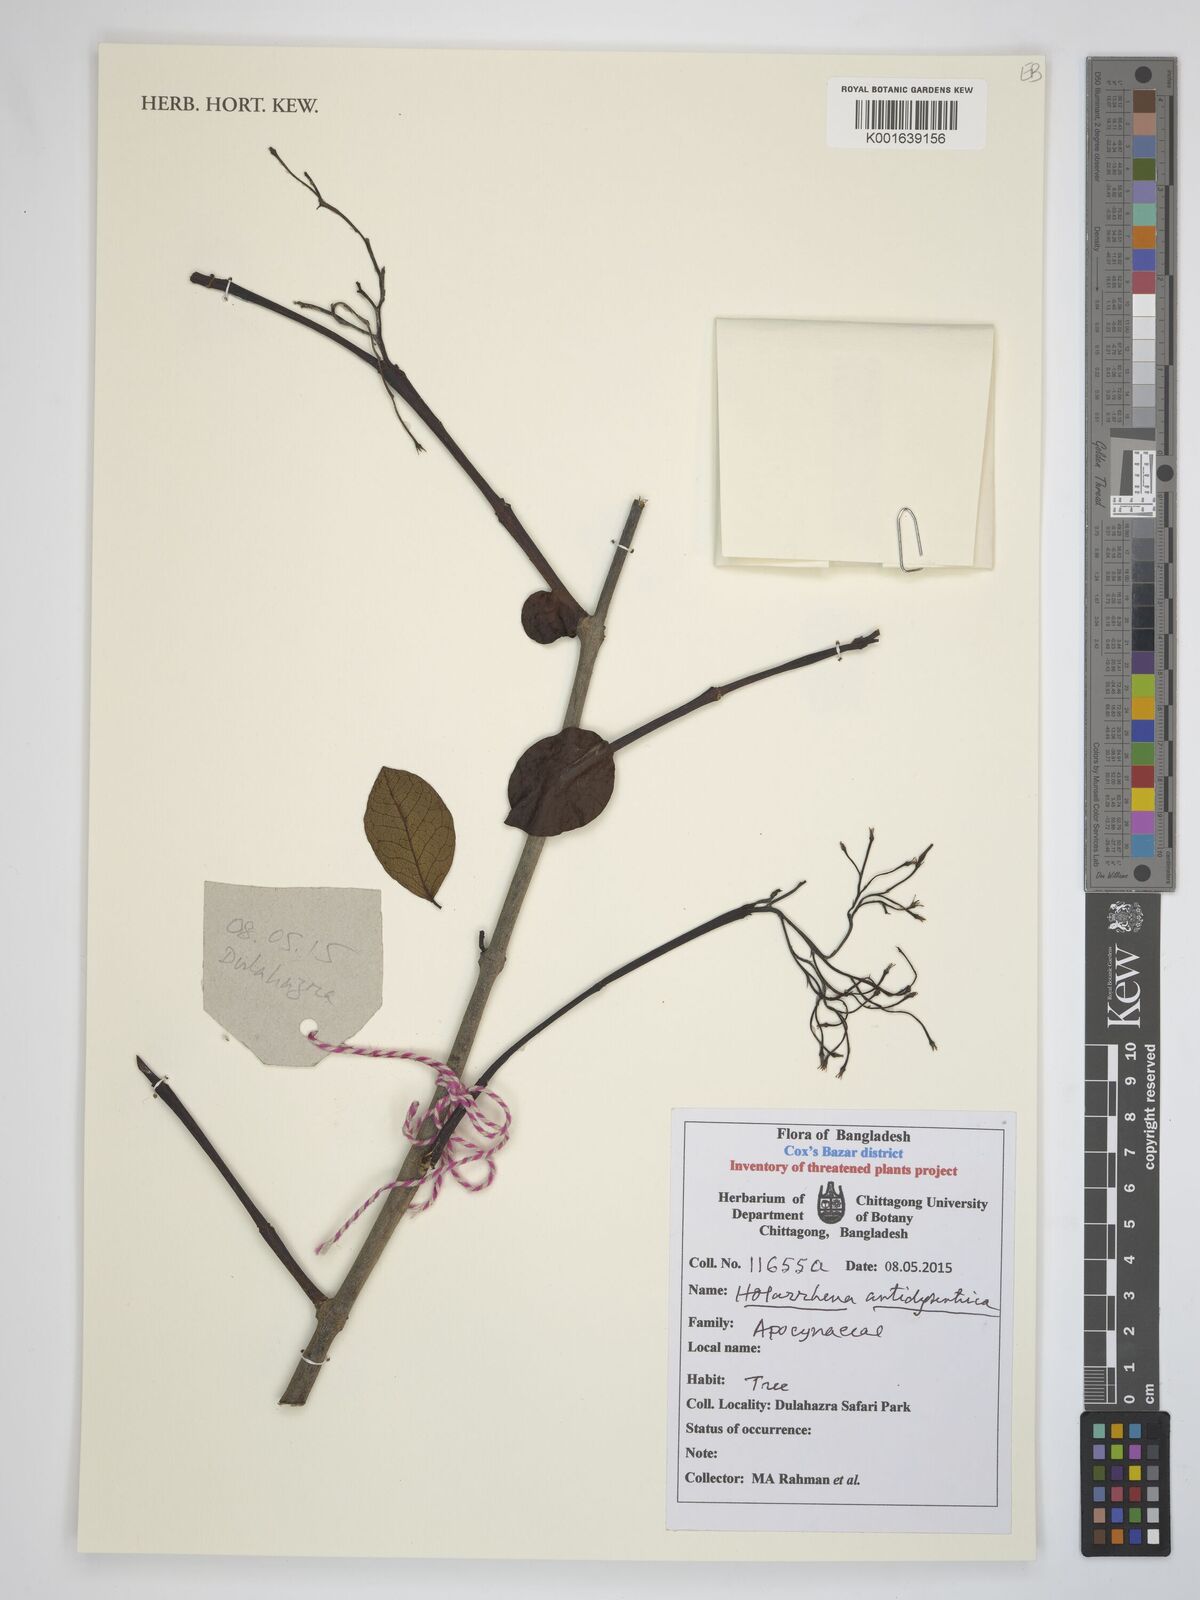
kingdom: Plantae
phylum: Tracheophyta
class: Magnoliopsida
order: Gentianales
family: Apocynaceae
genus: Holarrhena
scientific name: Holarrhena pubescens
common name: Bitter oleander
